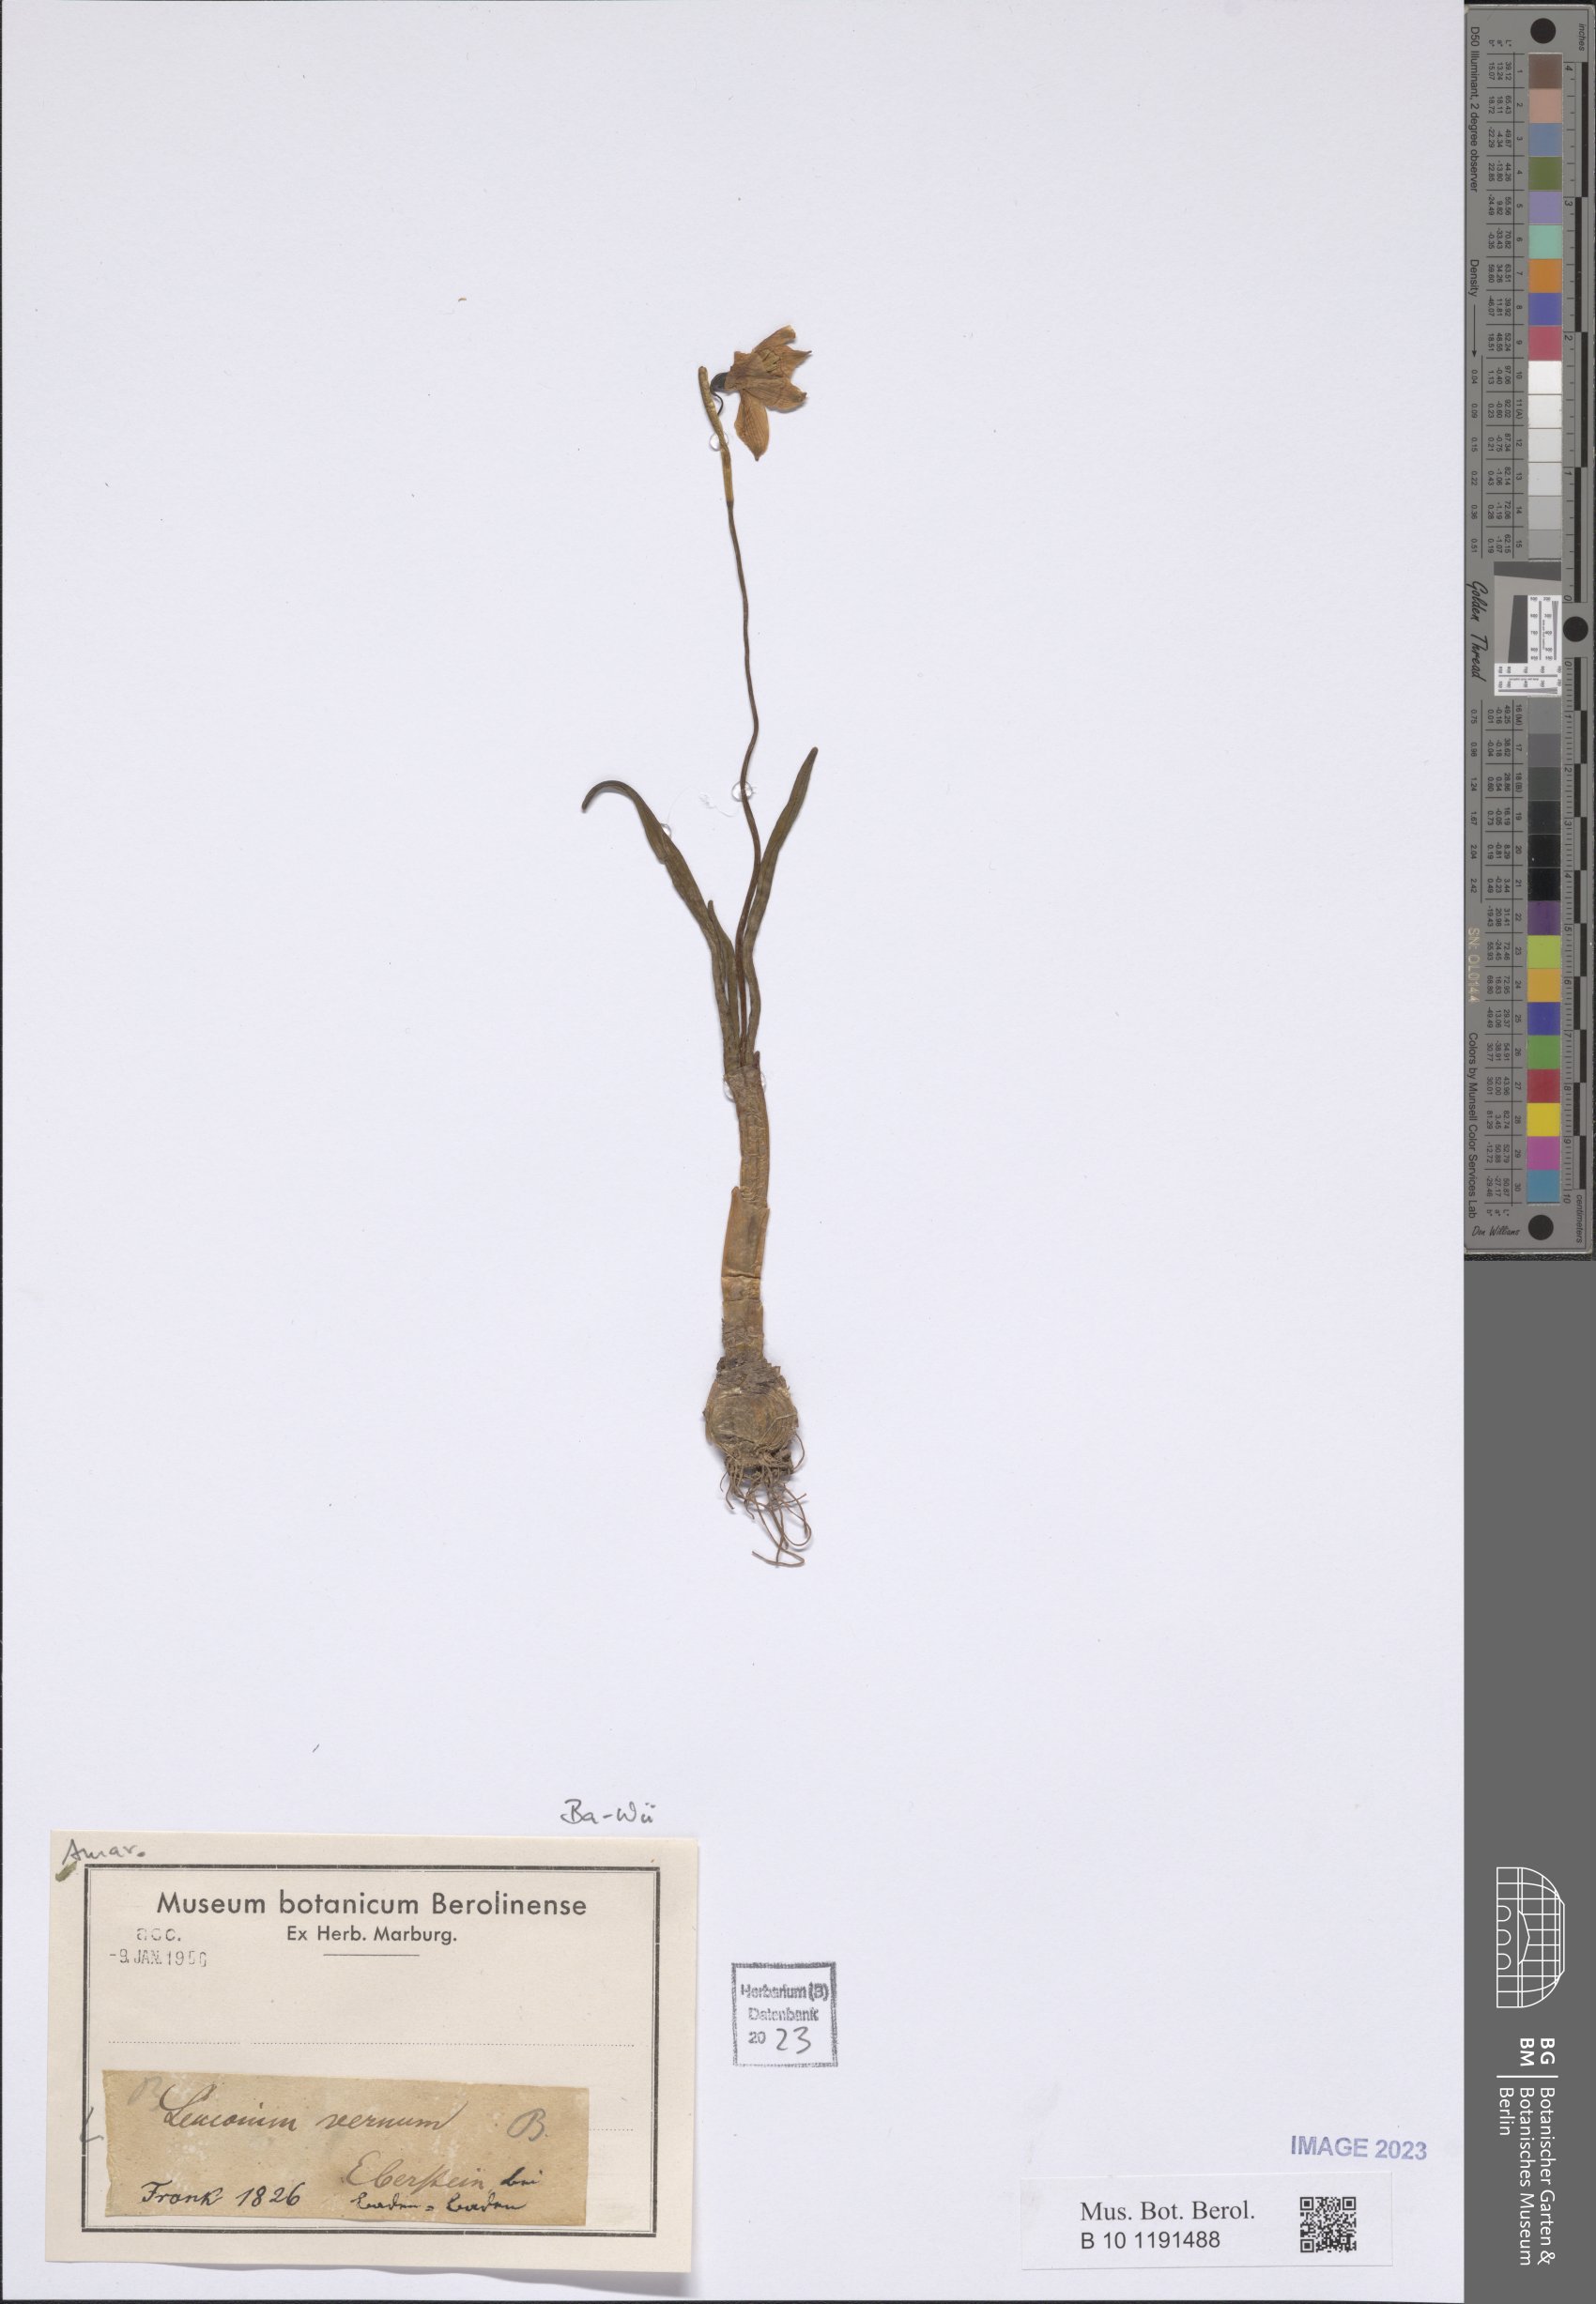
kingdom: Plantae
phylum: Tracheophyta
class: Liliopsida
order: Asparagales
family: Amaryllidaceae
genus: Leucojum
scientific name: Leucojum vernum
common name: Spring snowflake
